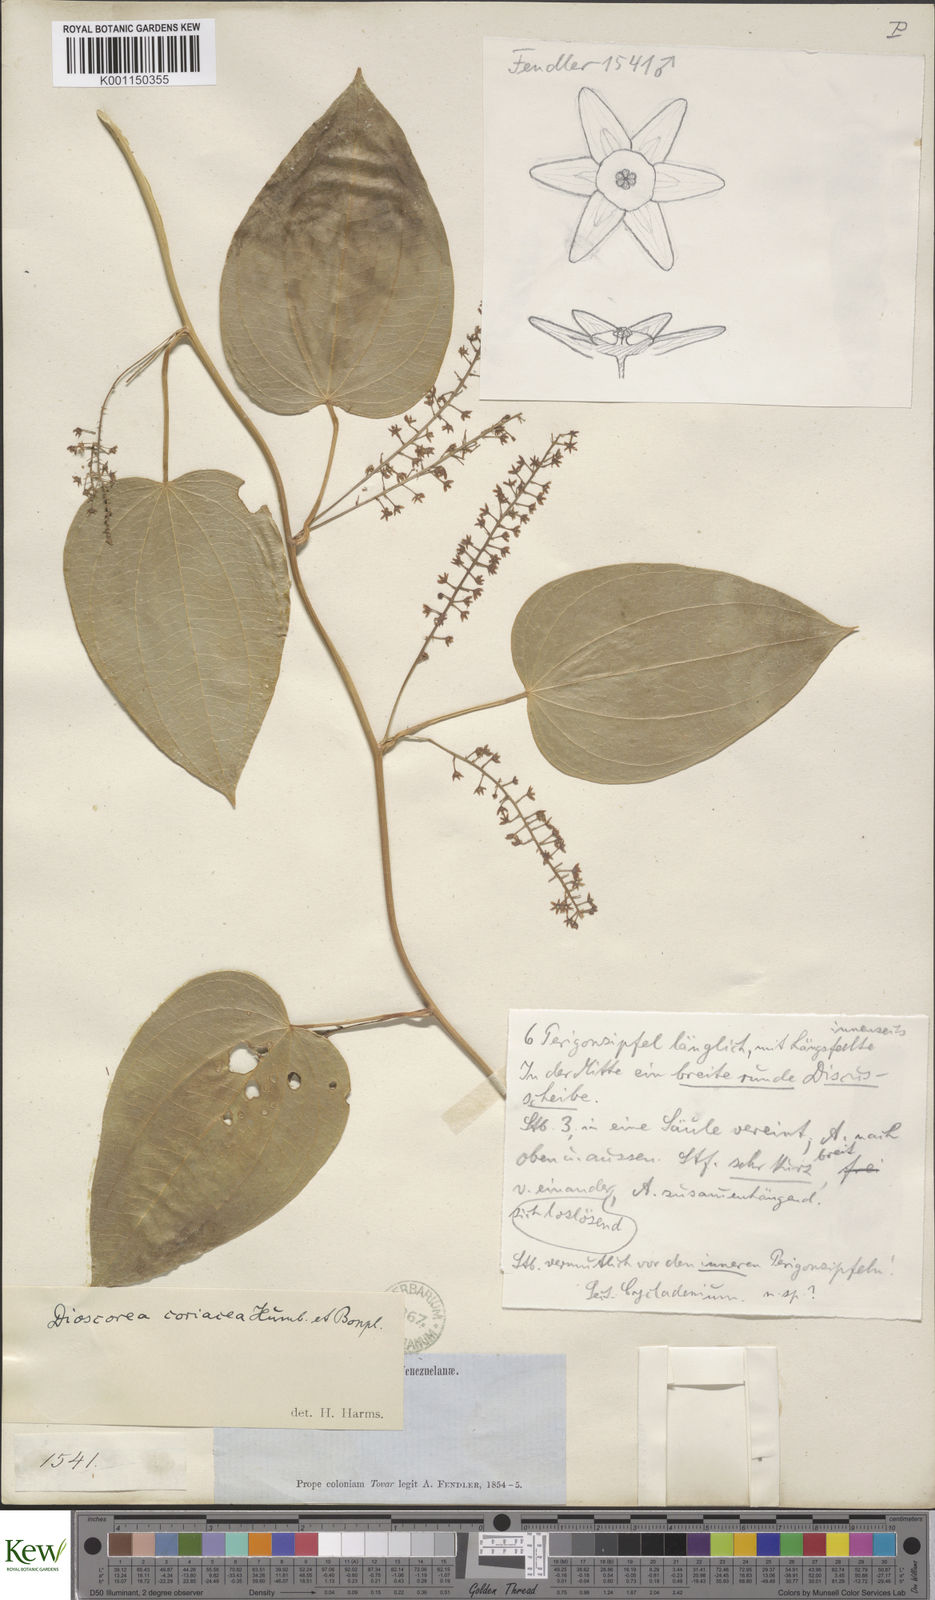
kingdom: Plantae
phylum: Tracheophyta
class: Liliopsida
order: Dioscoreales
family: Dioscoreaceae
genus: Dioscorea
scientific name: Dioscorea coriacea
